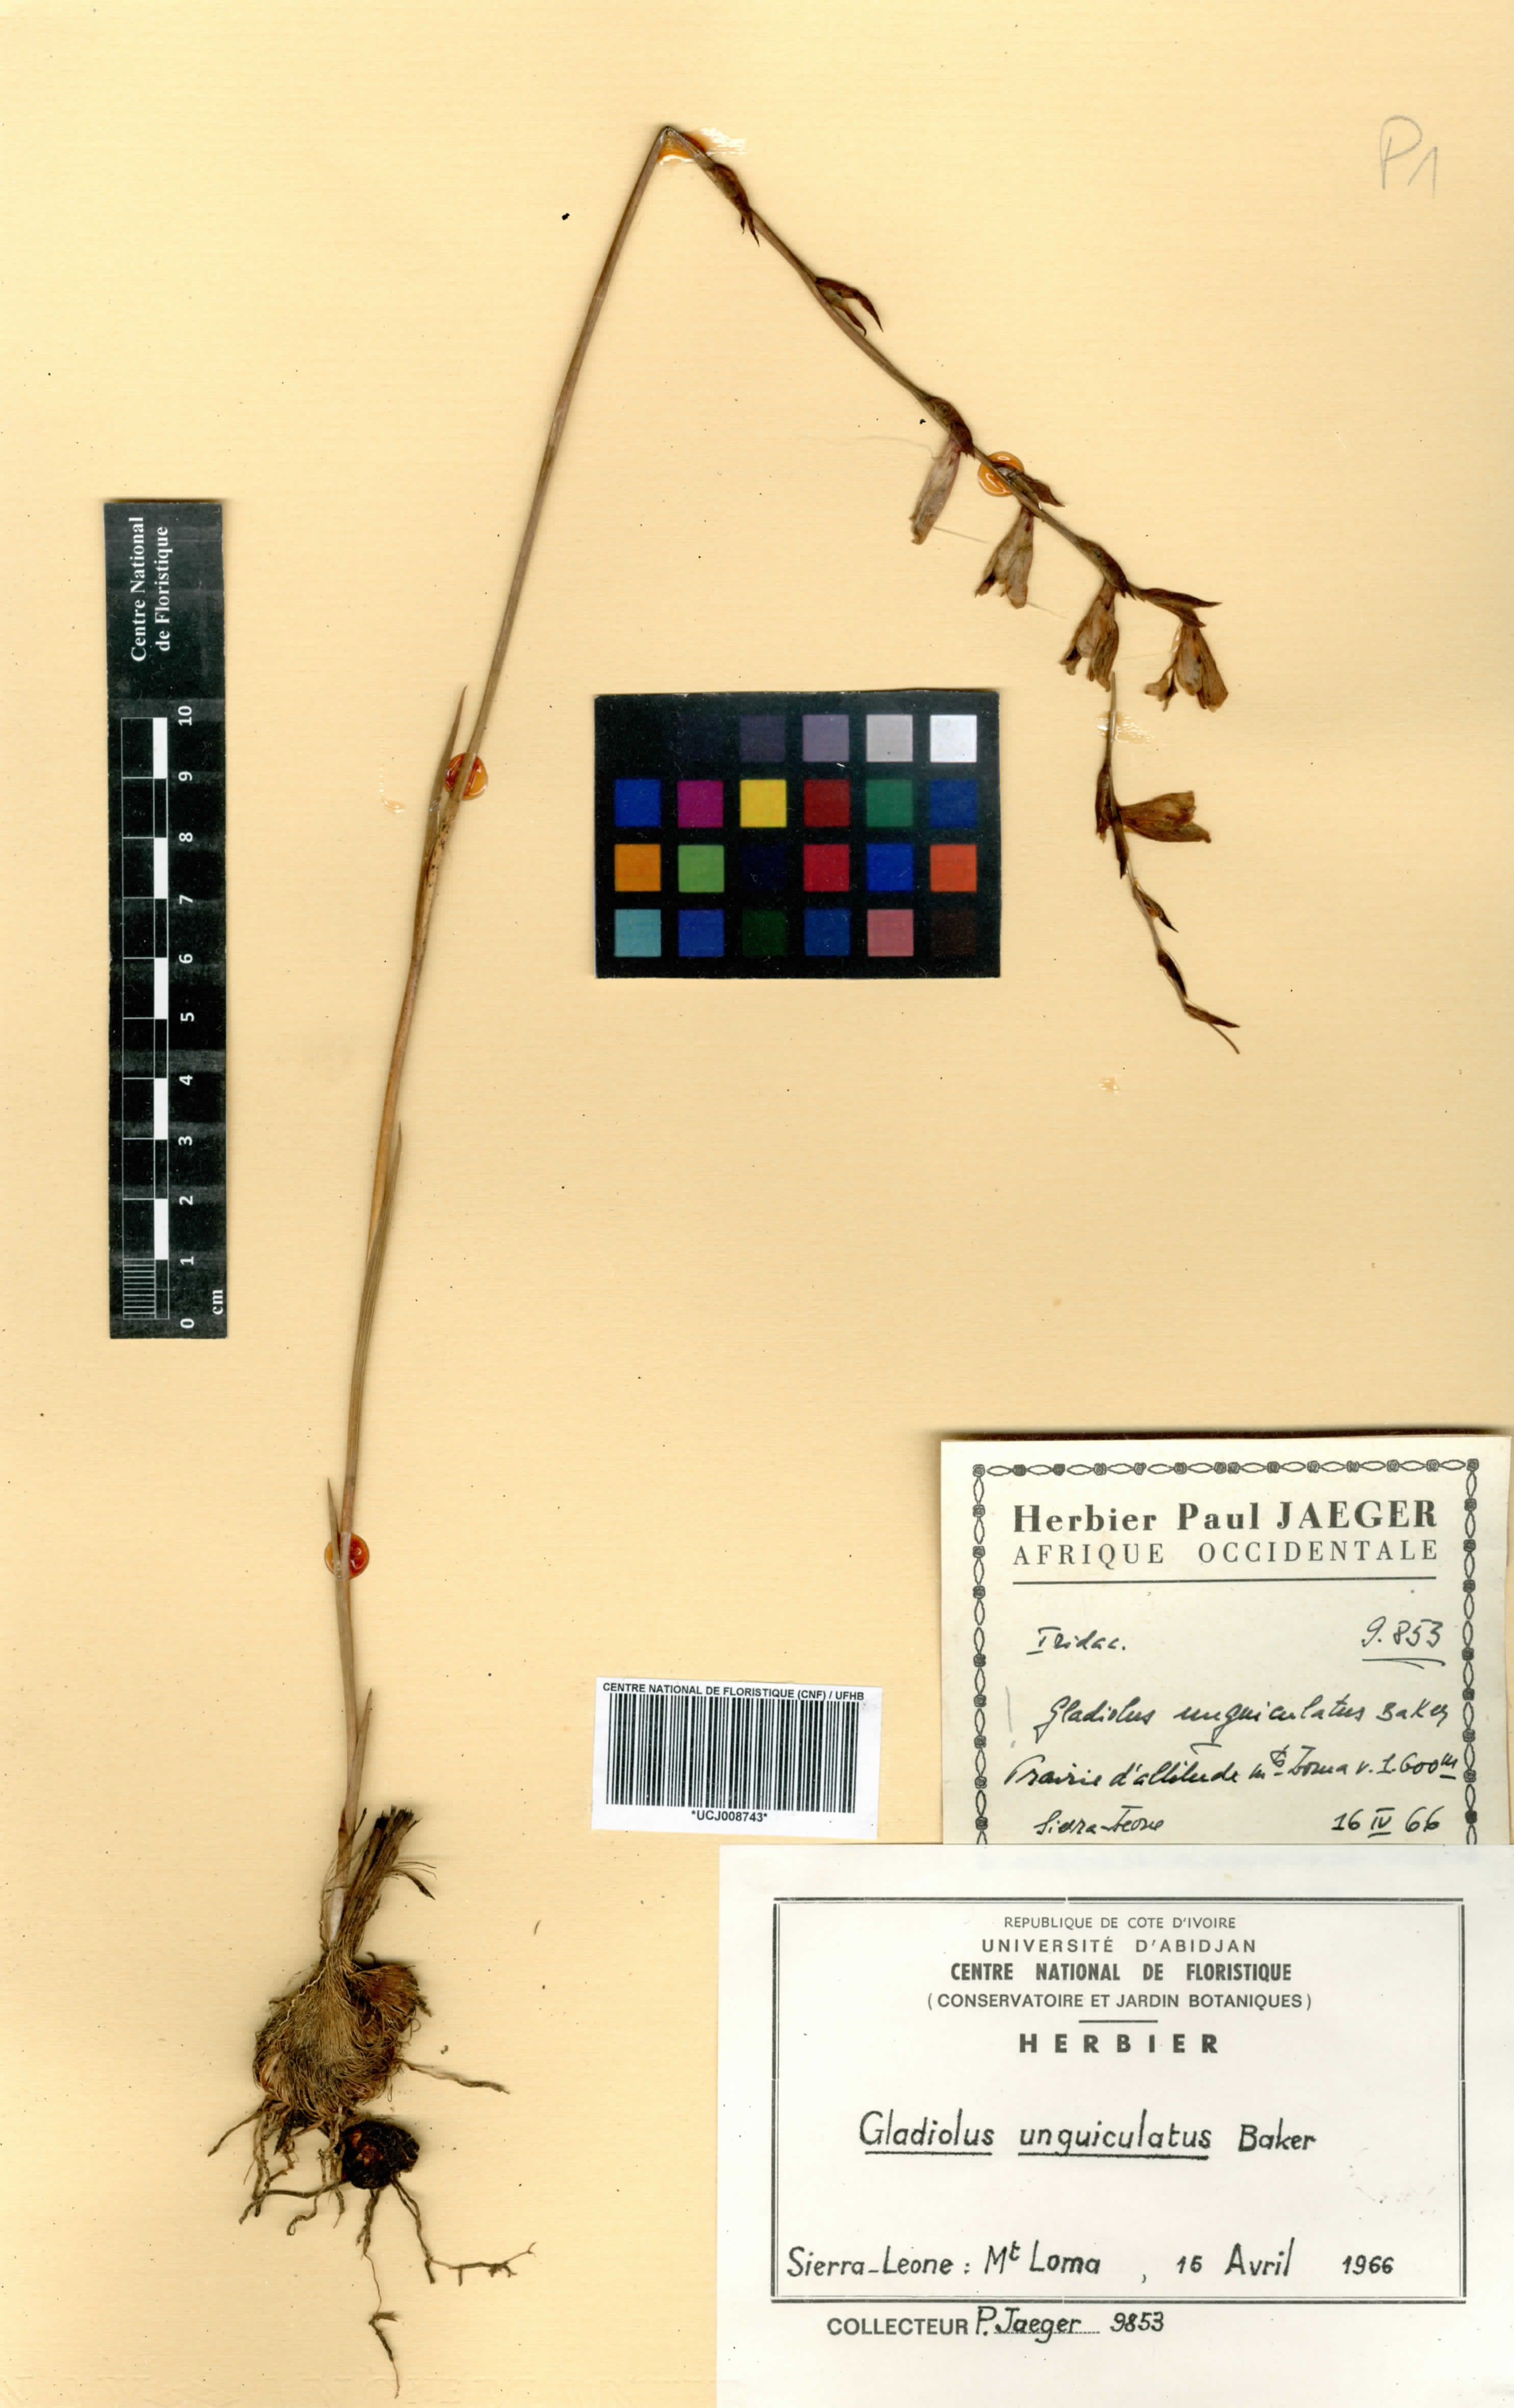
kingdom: Plantae
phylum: Tracheophyta
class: Liliopsida
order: Asparagales
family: Iridaceae
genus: Gladiolus
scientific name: Gladiolus unguiculatus
